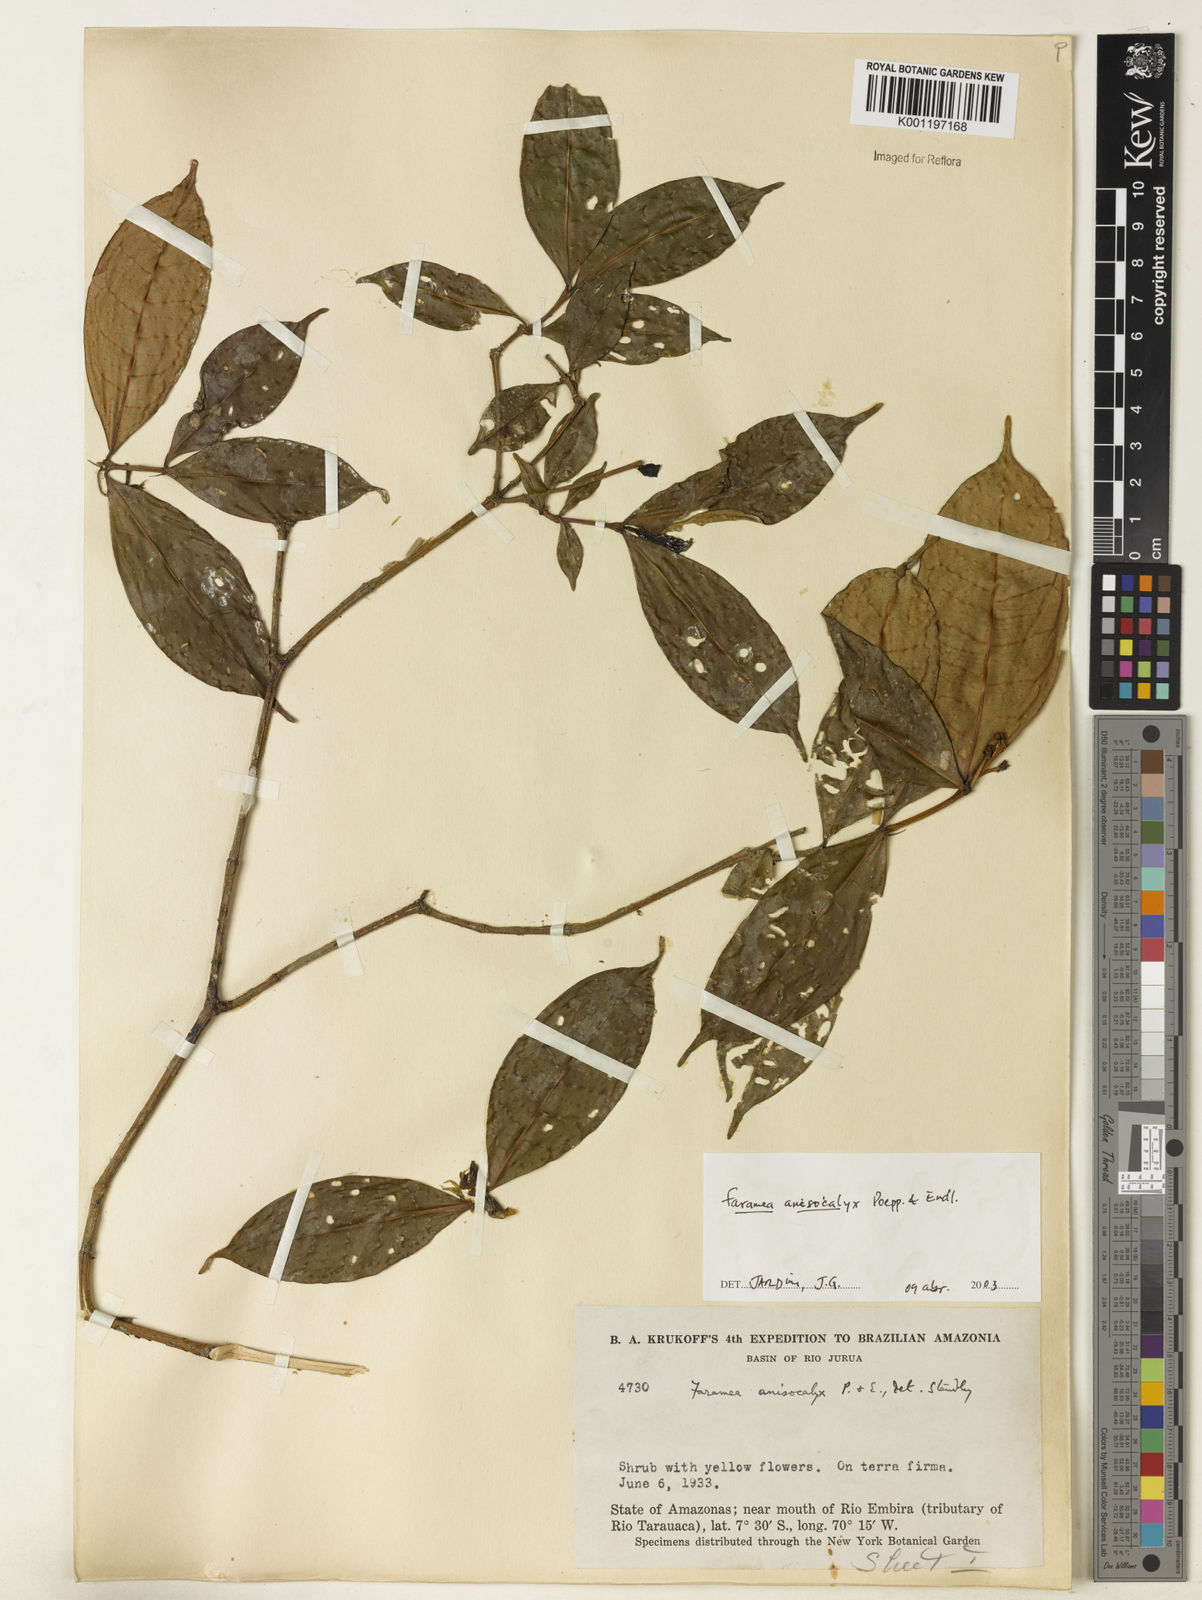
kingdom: Plantae
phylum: Tracheophyta
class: Magnoliopsida
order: Gentianales
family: Rubiaceae
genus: Faramea
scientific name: Faramea anisocalyx
